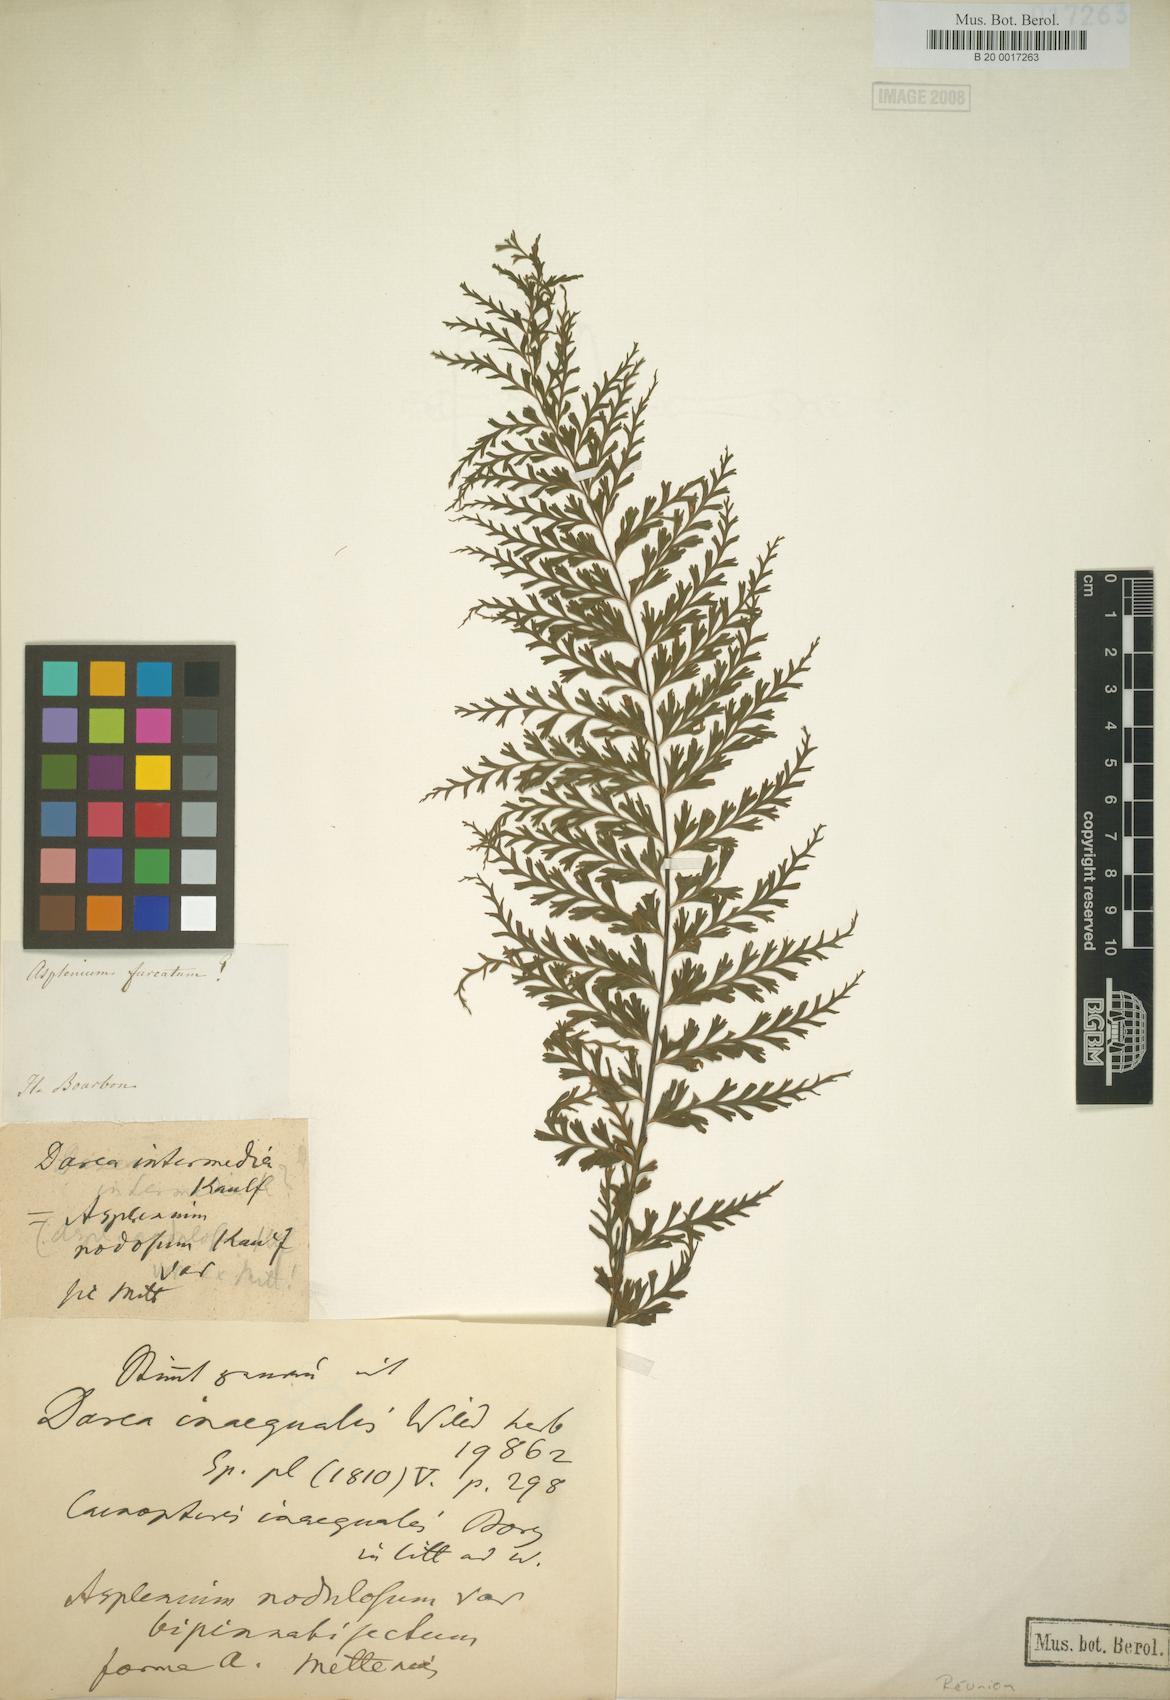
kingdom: Plantae
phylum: Tracheophyta
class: Polypodiopsida
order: Polypodiales
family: Aspleniaceae
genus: Asplenium
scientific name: Asplenium daucifolium
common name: Mauritius spleenwort
